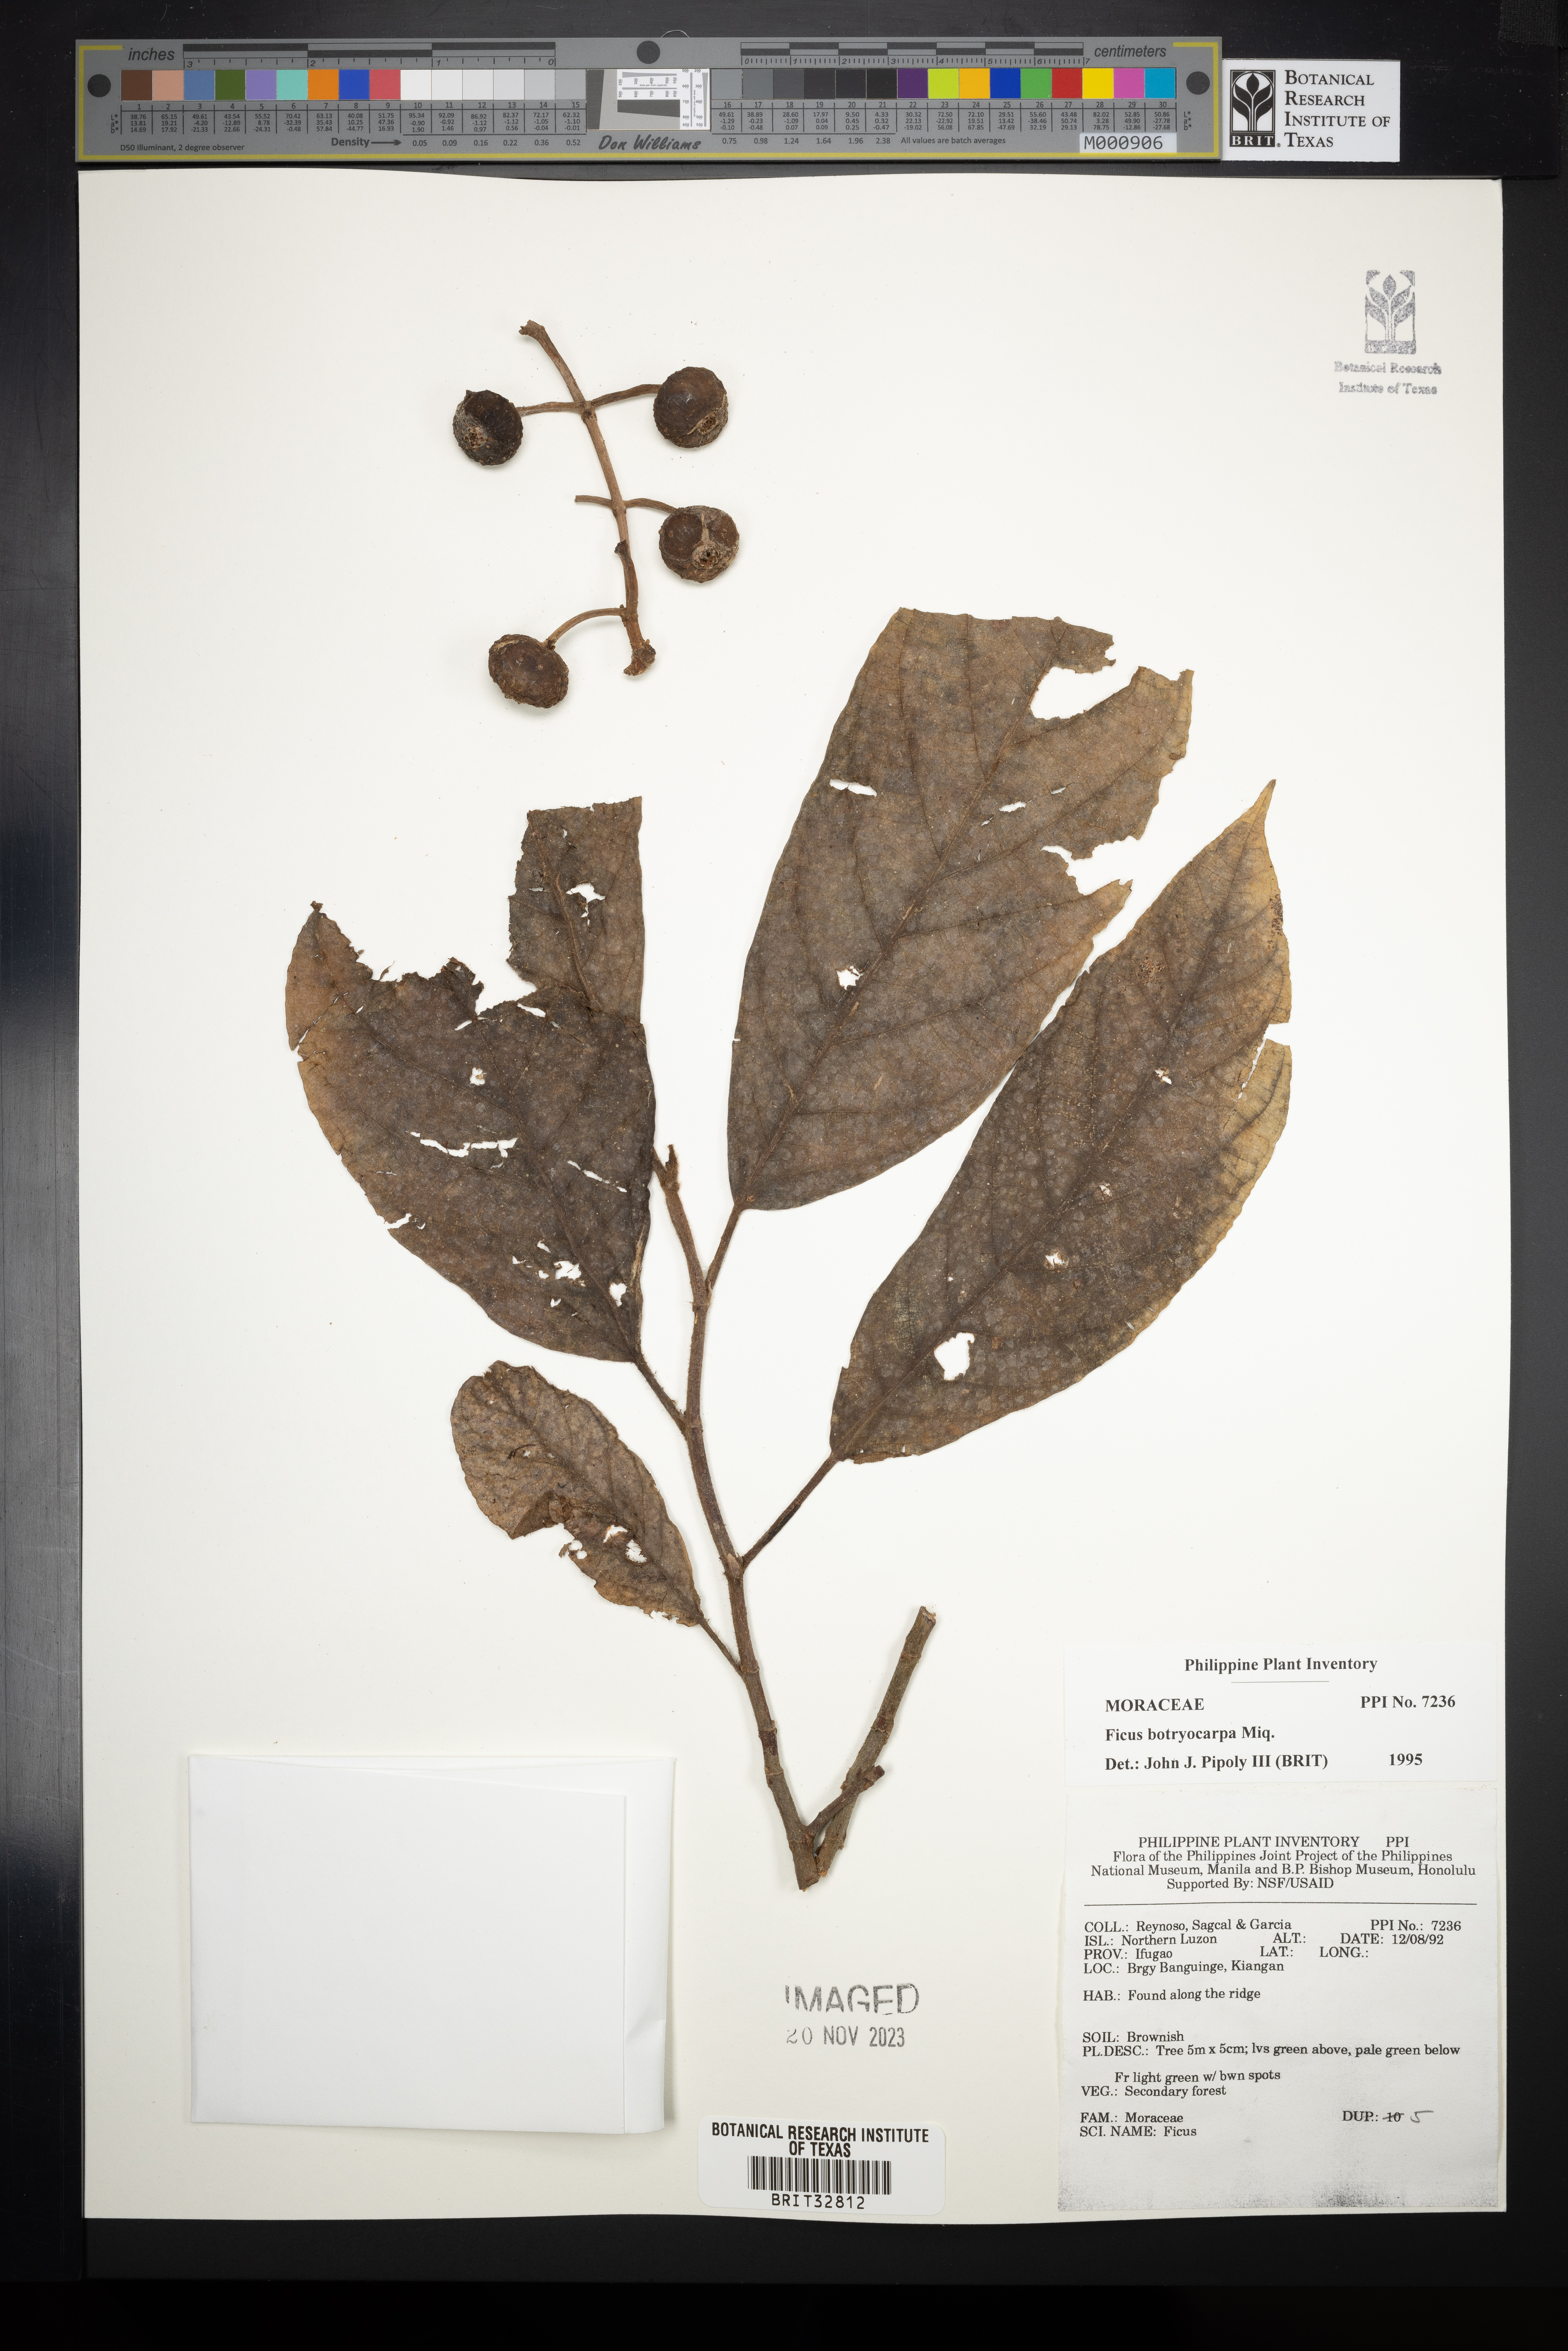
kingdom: Plantae
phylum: Tracheophyta
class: Magnoliopsida
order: Rosales
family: Moraceae
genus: Ficus
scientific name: Ficus botryocarpa
